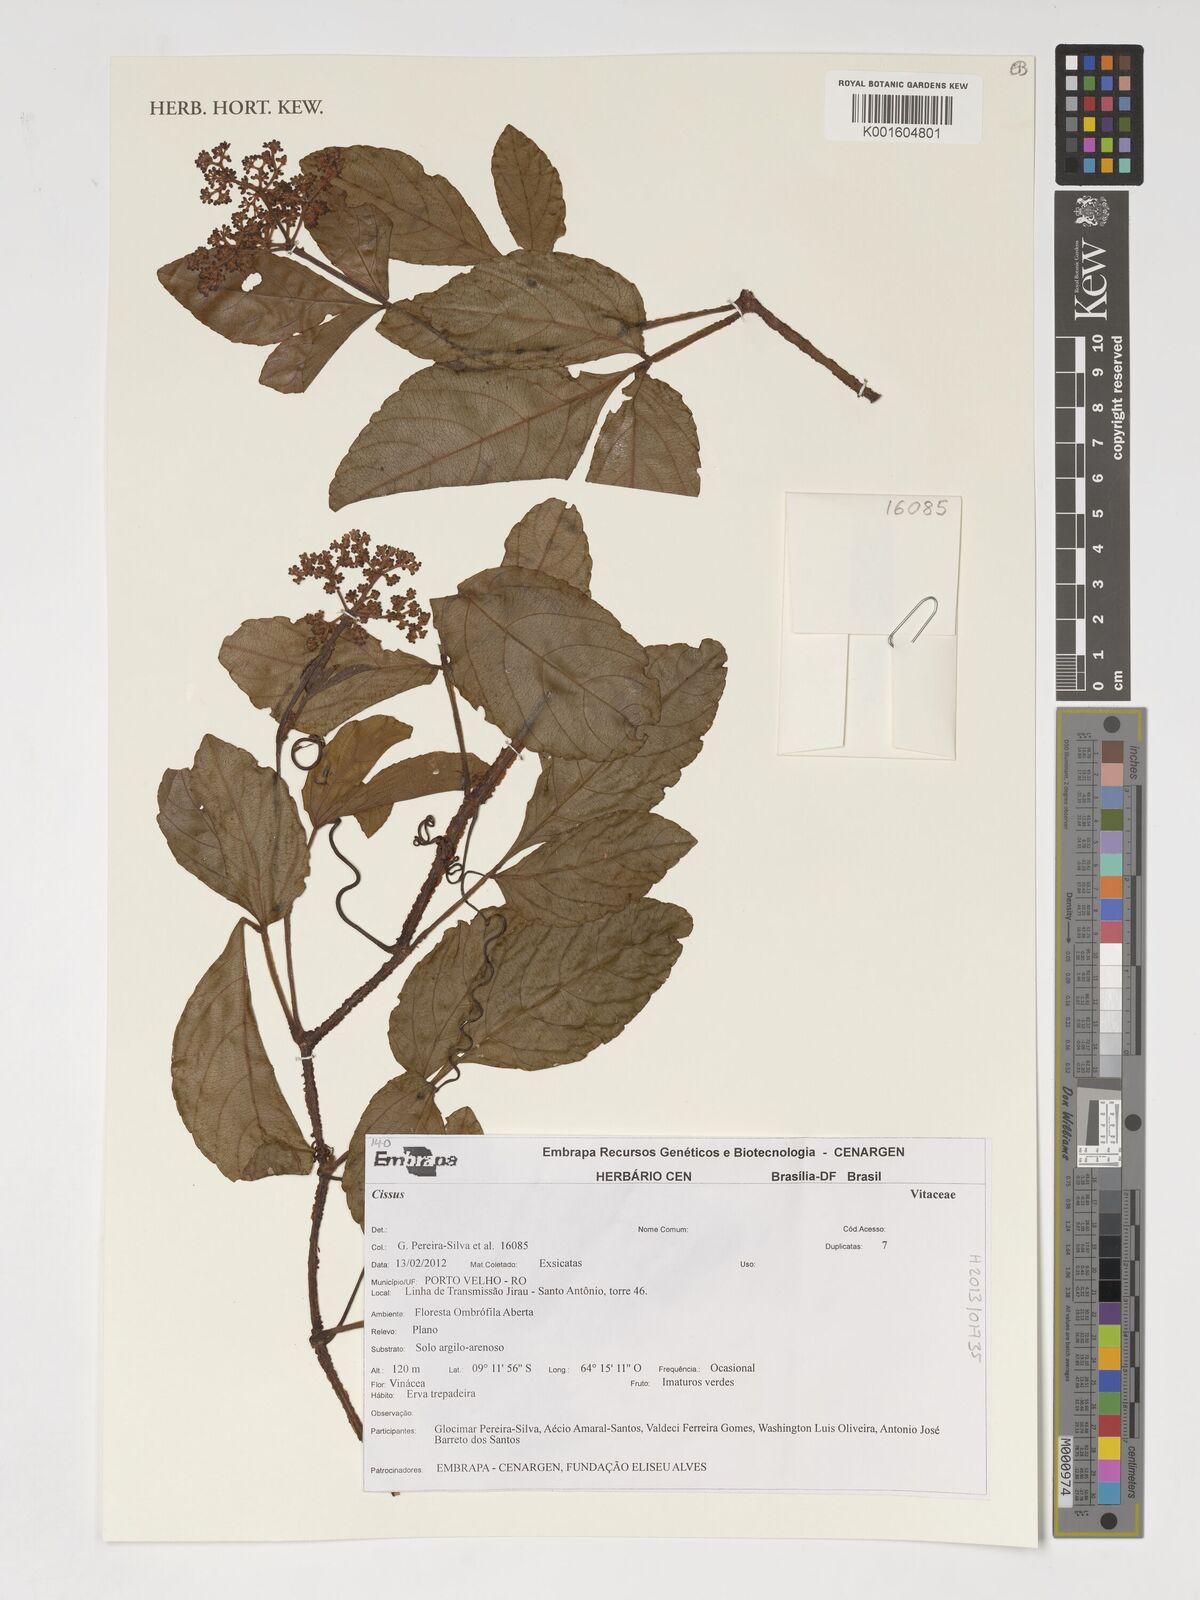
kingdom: Plantae
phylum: Tracheophyta
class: Magnoliopsida
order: Vitales
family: Vitaceae
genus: Cissus
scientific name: Cissus
